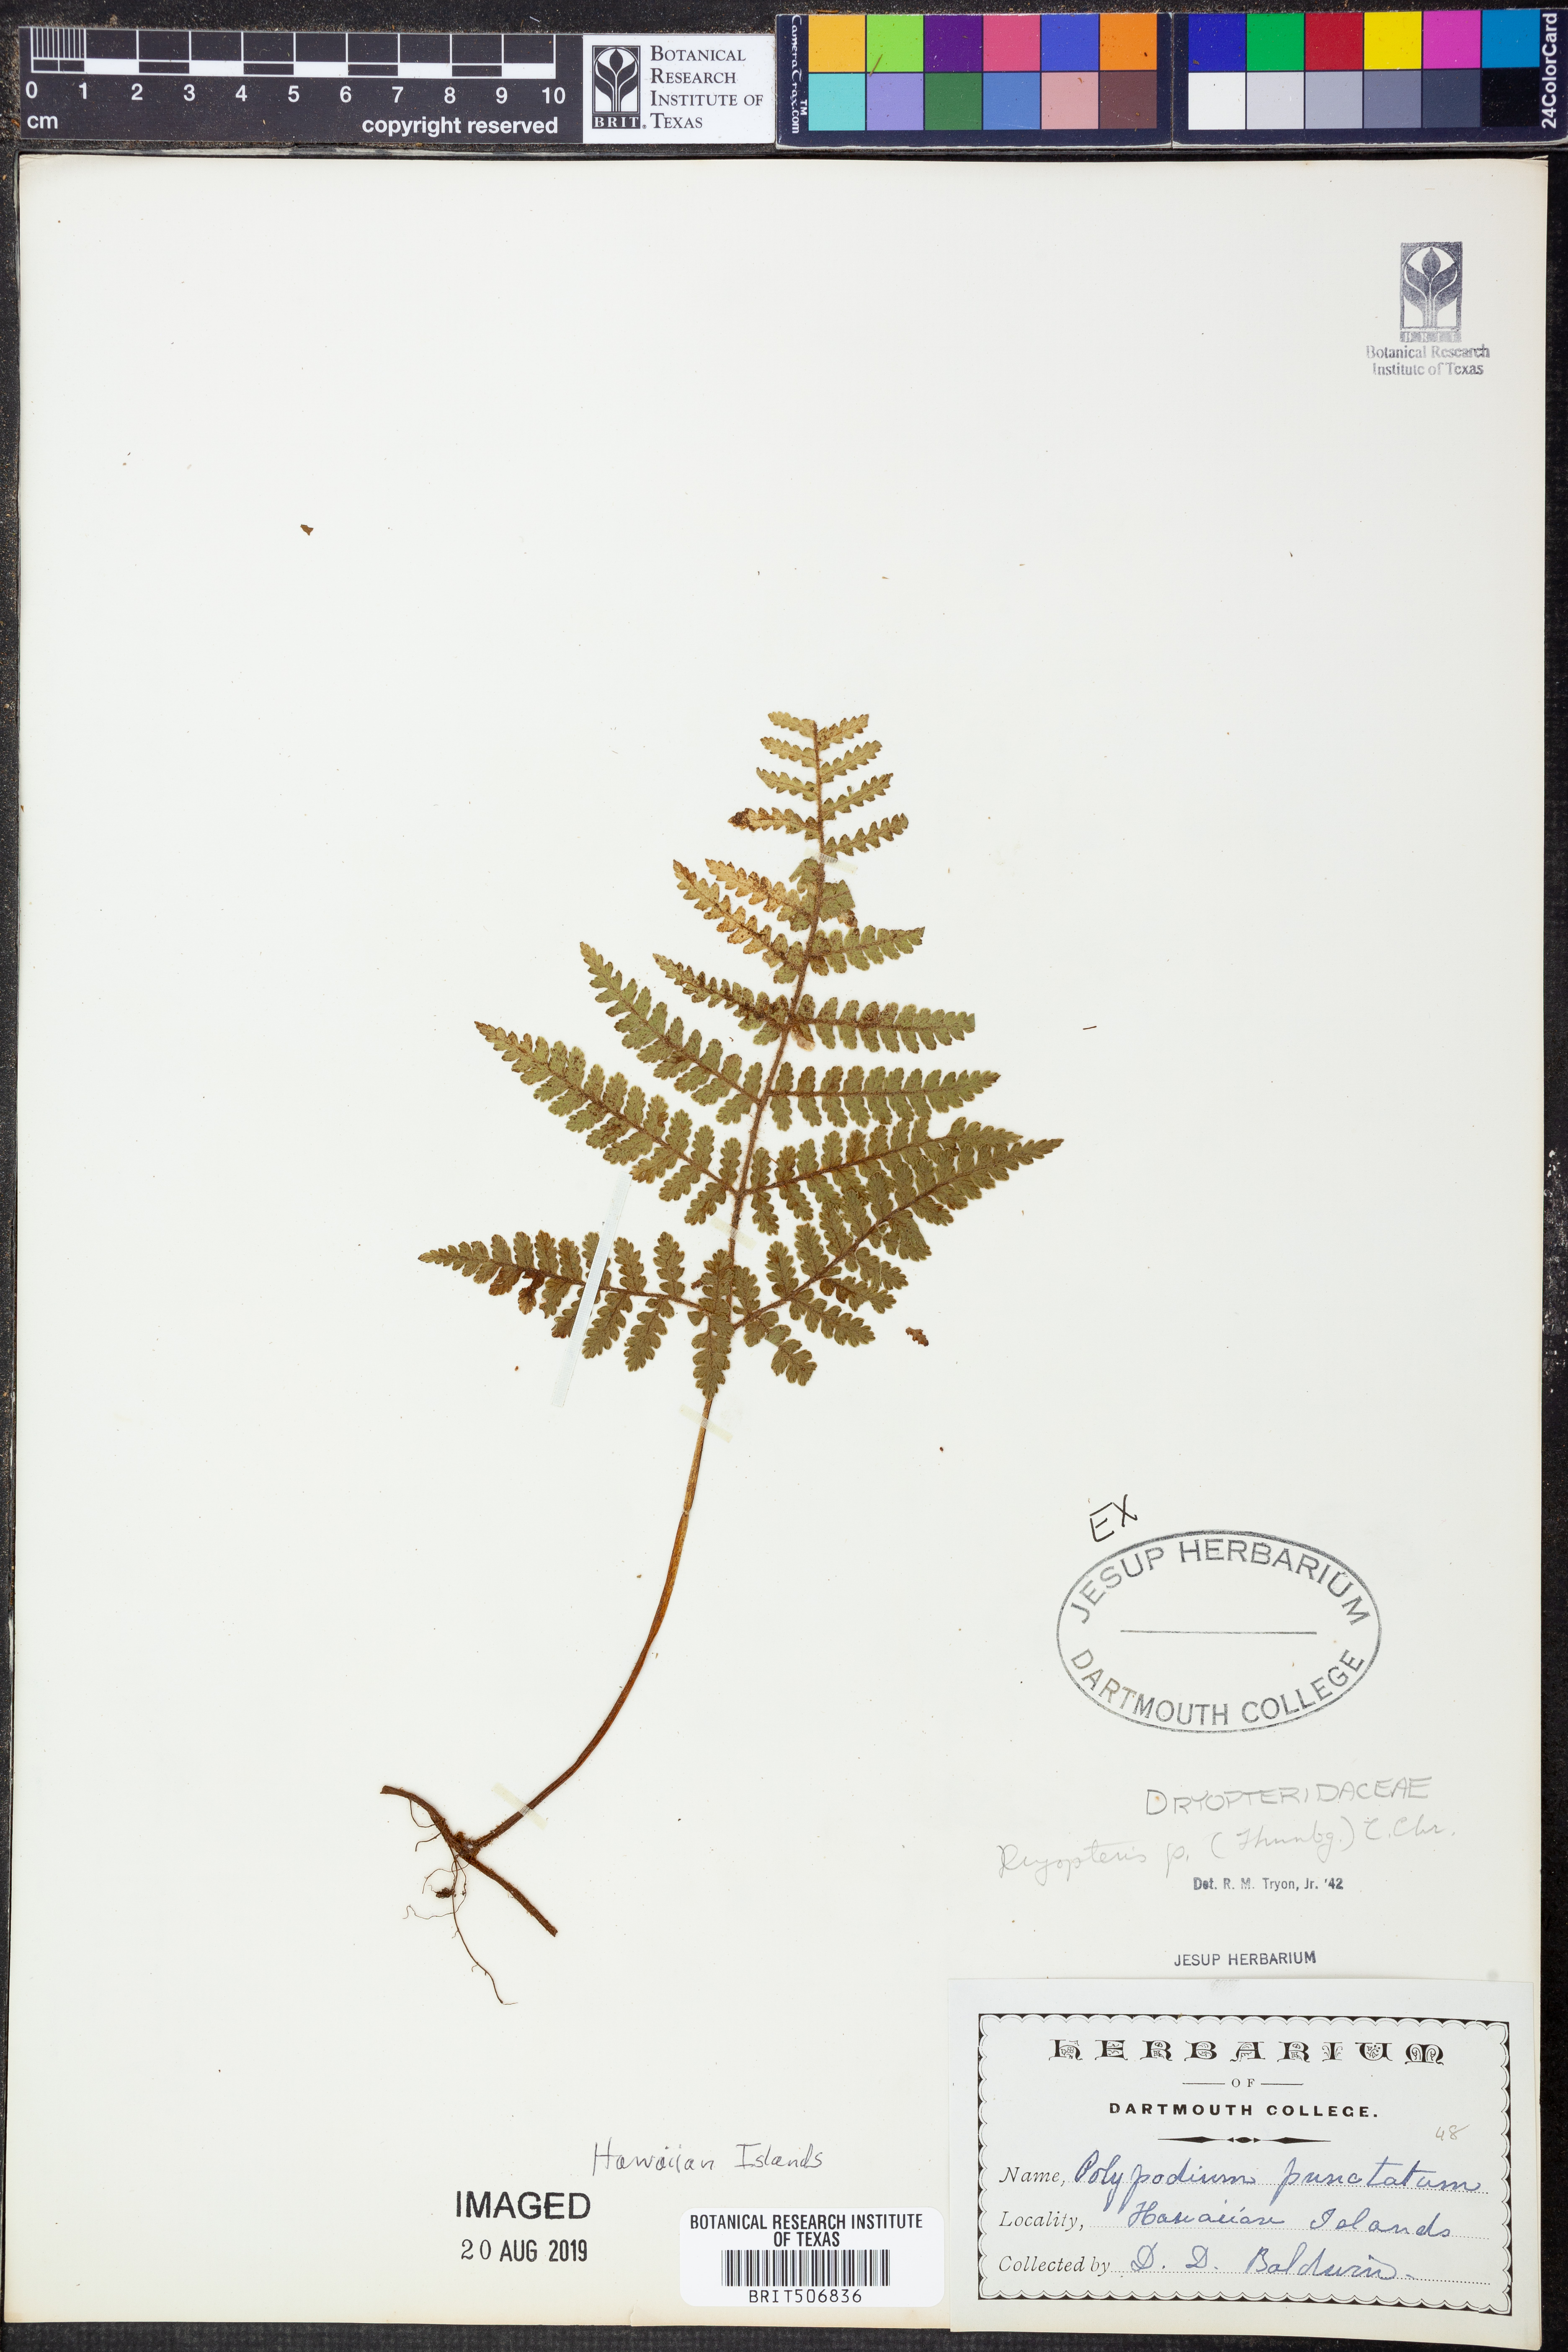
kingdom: Plantae
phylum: Tracheophyta
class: Polypodiopsida
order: Polypodiales
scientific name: Polypodiales
